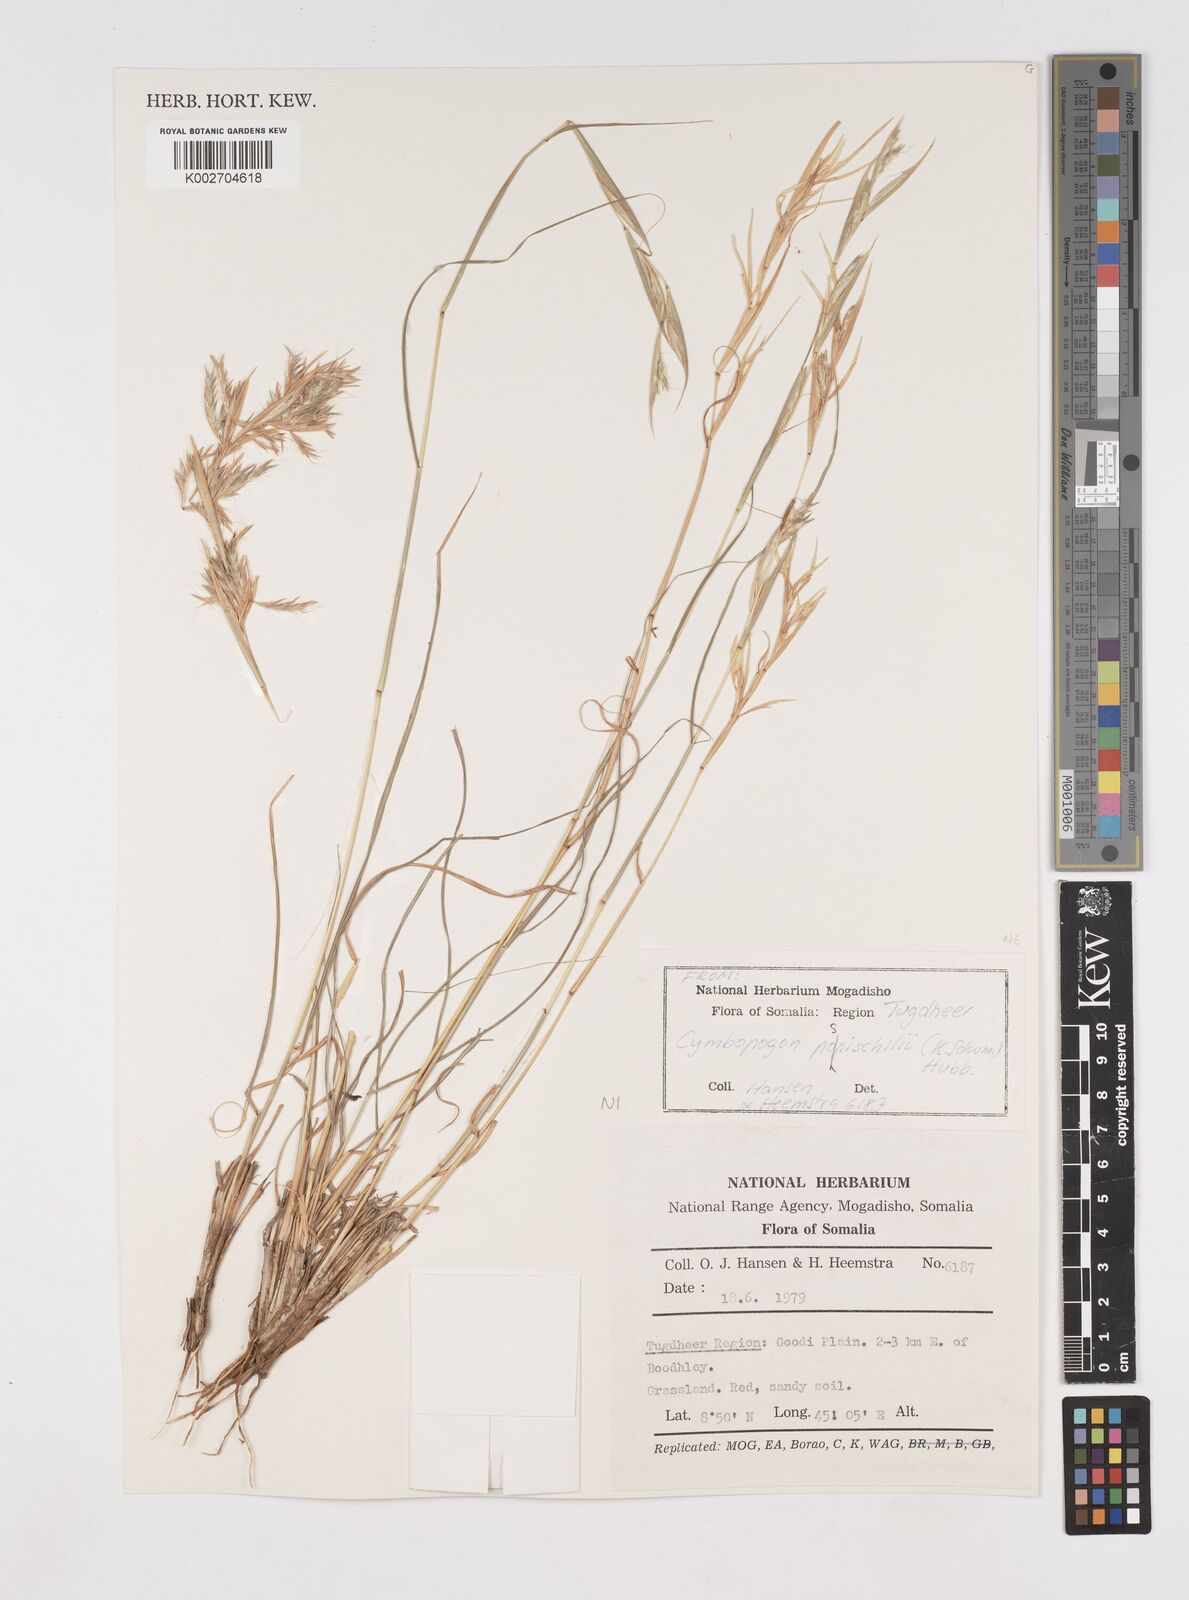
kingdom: Plantae
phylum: Tracheophyta
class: Liliopsida
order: Poales
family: Poaceae
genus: Cymbopogon
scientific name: Cymbopogon pospischilii
